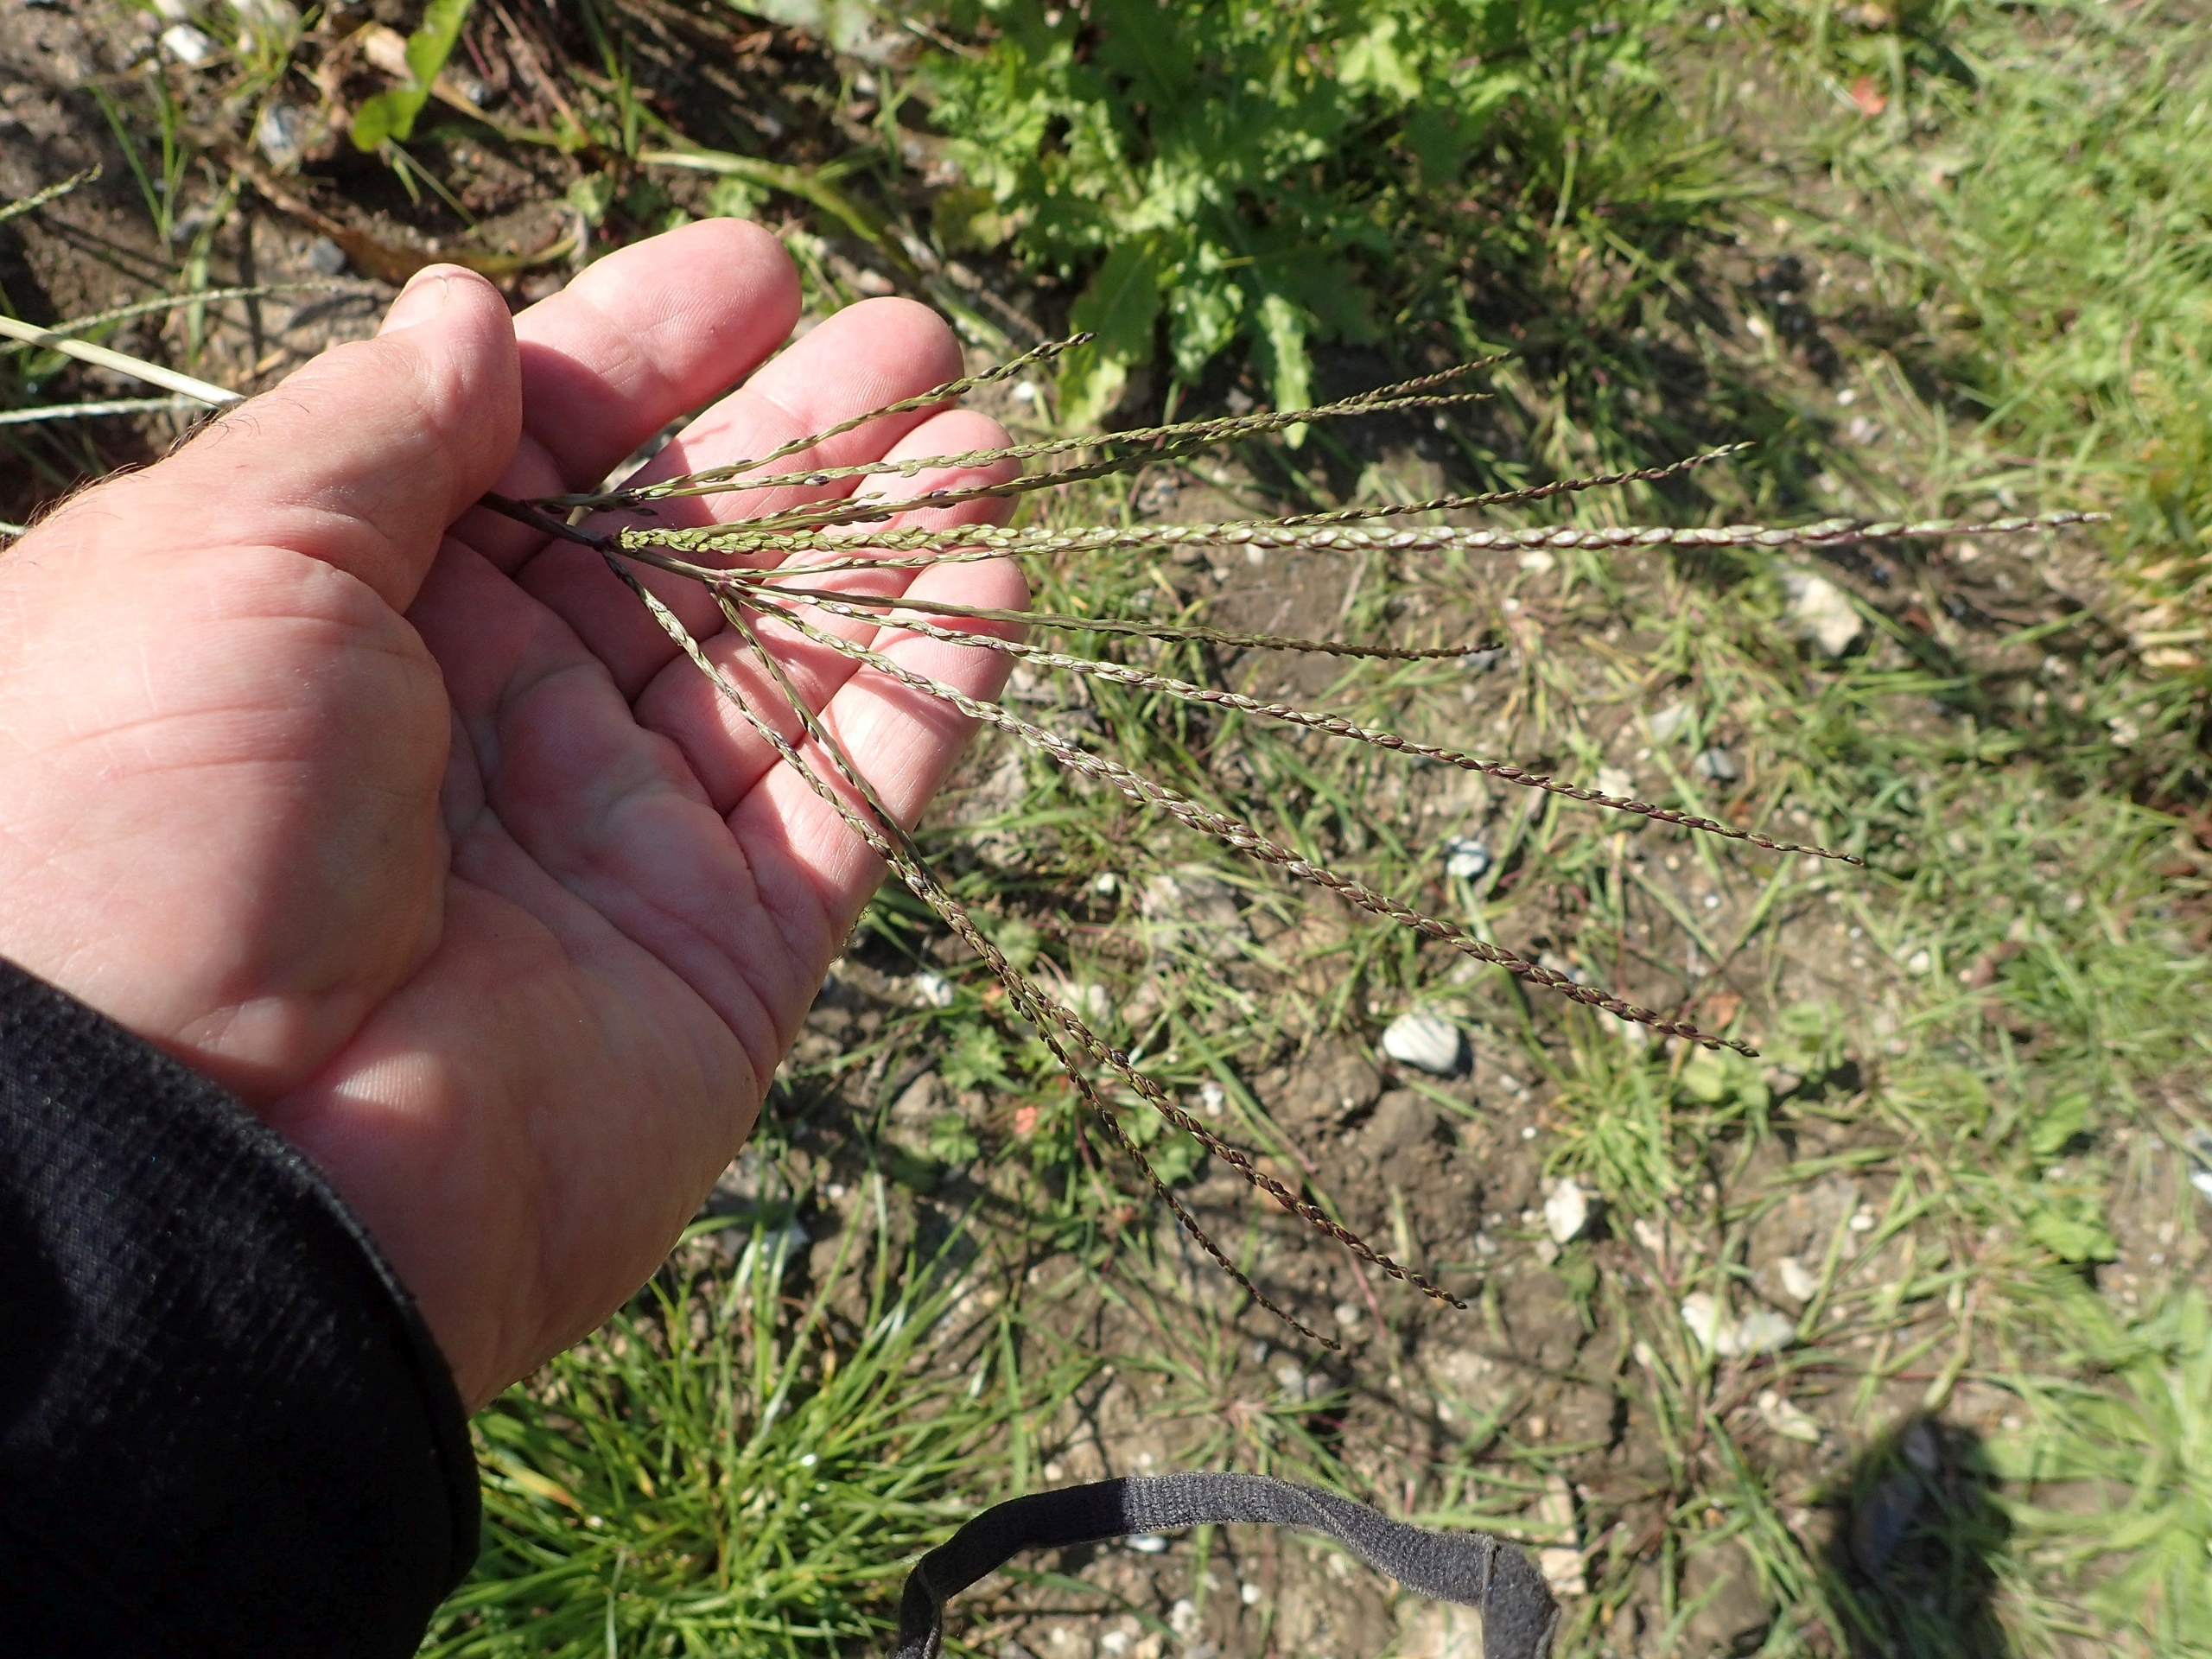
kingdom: Plantae
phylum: Tracheophyta
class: Liliopsida
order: Poales
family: Poaceae
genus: Digitaria
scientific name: Digitaria sanguinalis
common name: Blodhirse
